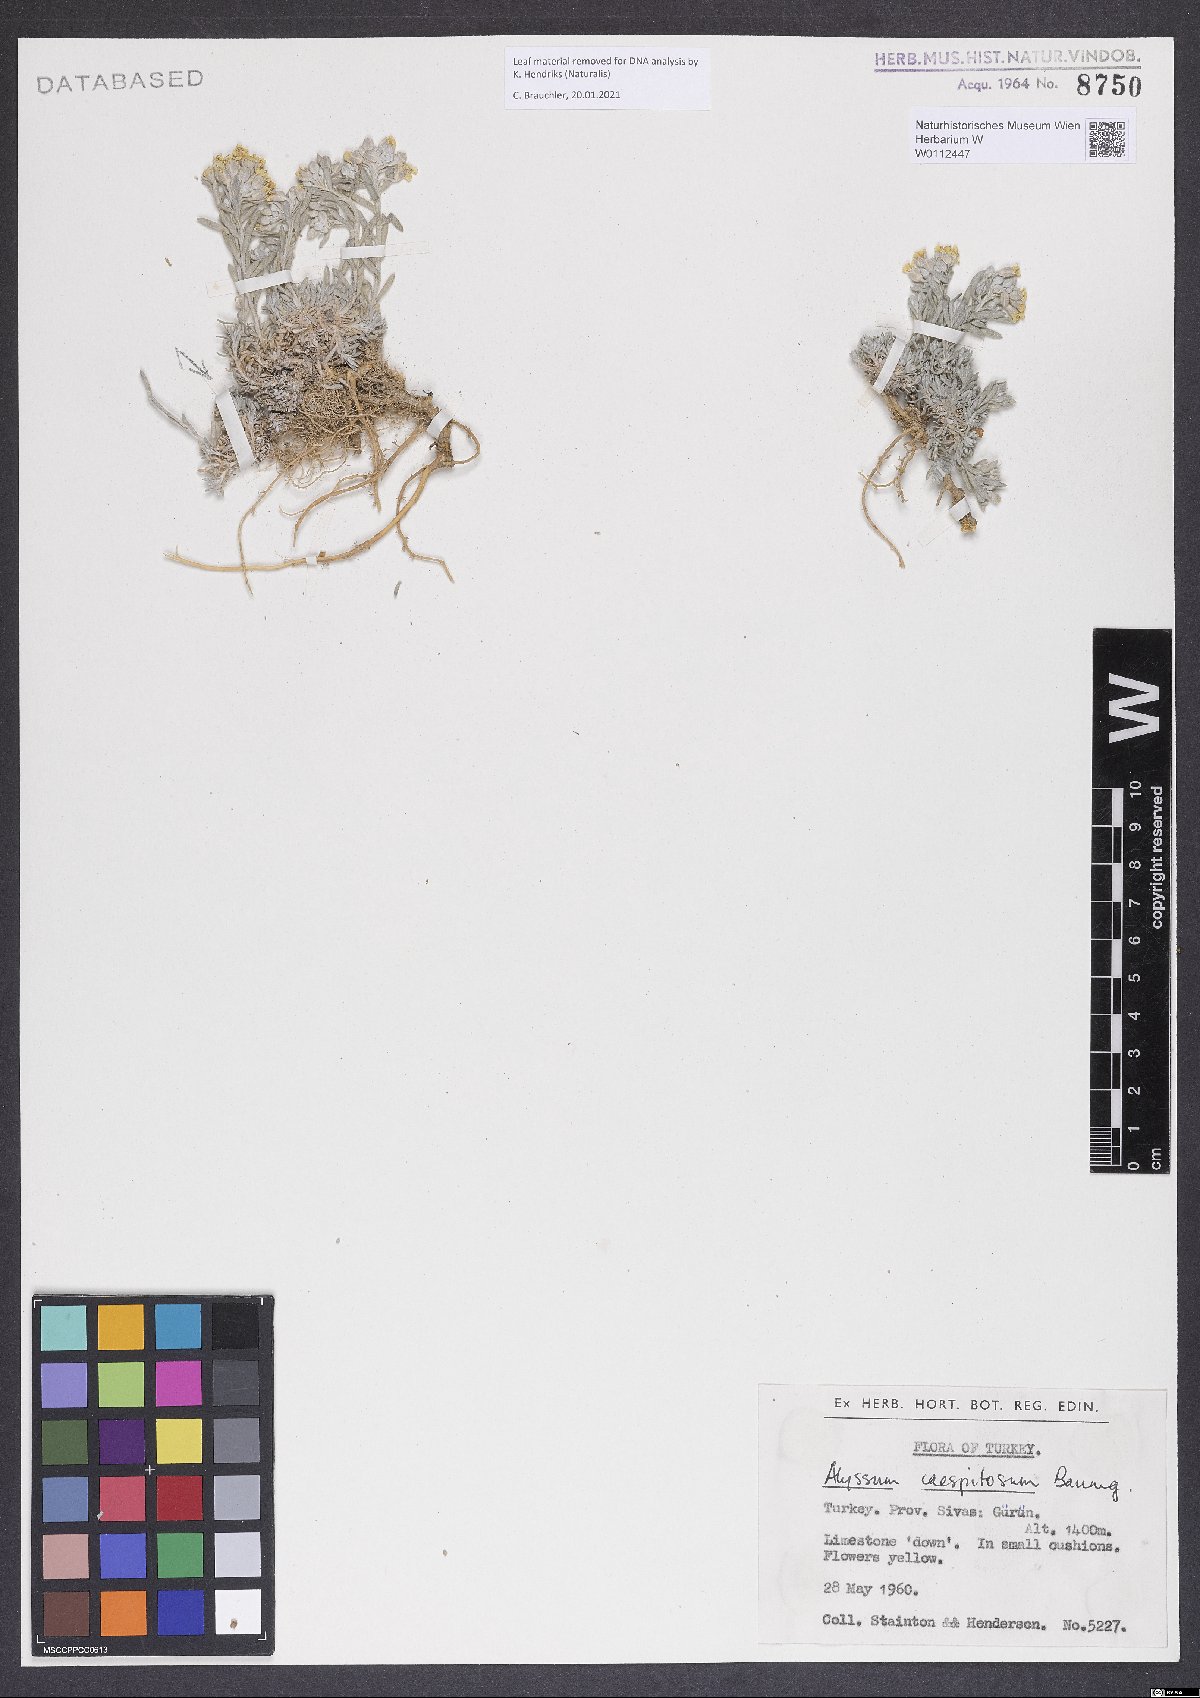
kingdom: Plantae
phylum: Tracheophyta
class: Magnoliopsida
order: Brassicales
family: Brassicaceae
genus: Alyssum
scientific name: Alyssum caespitosum
